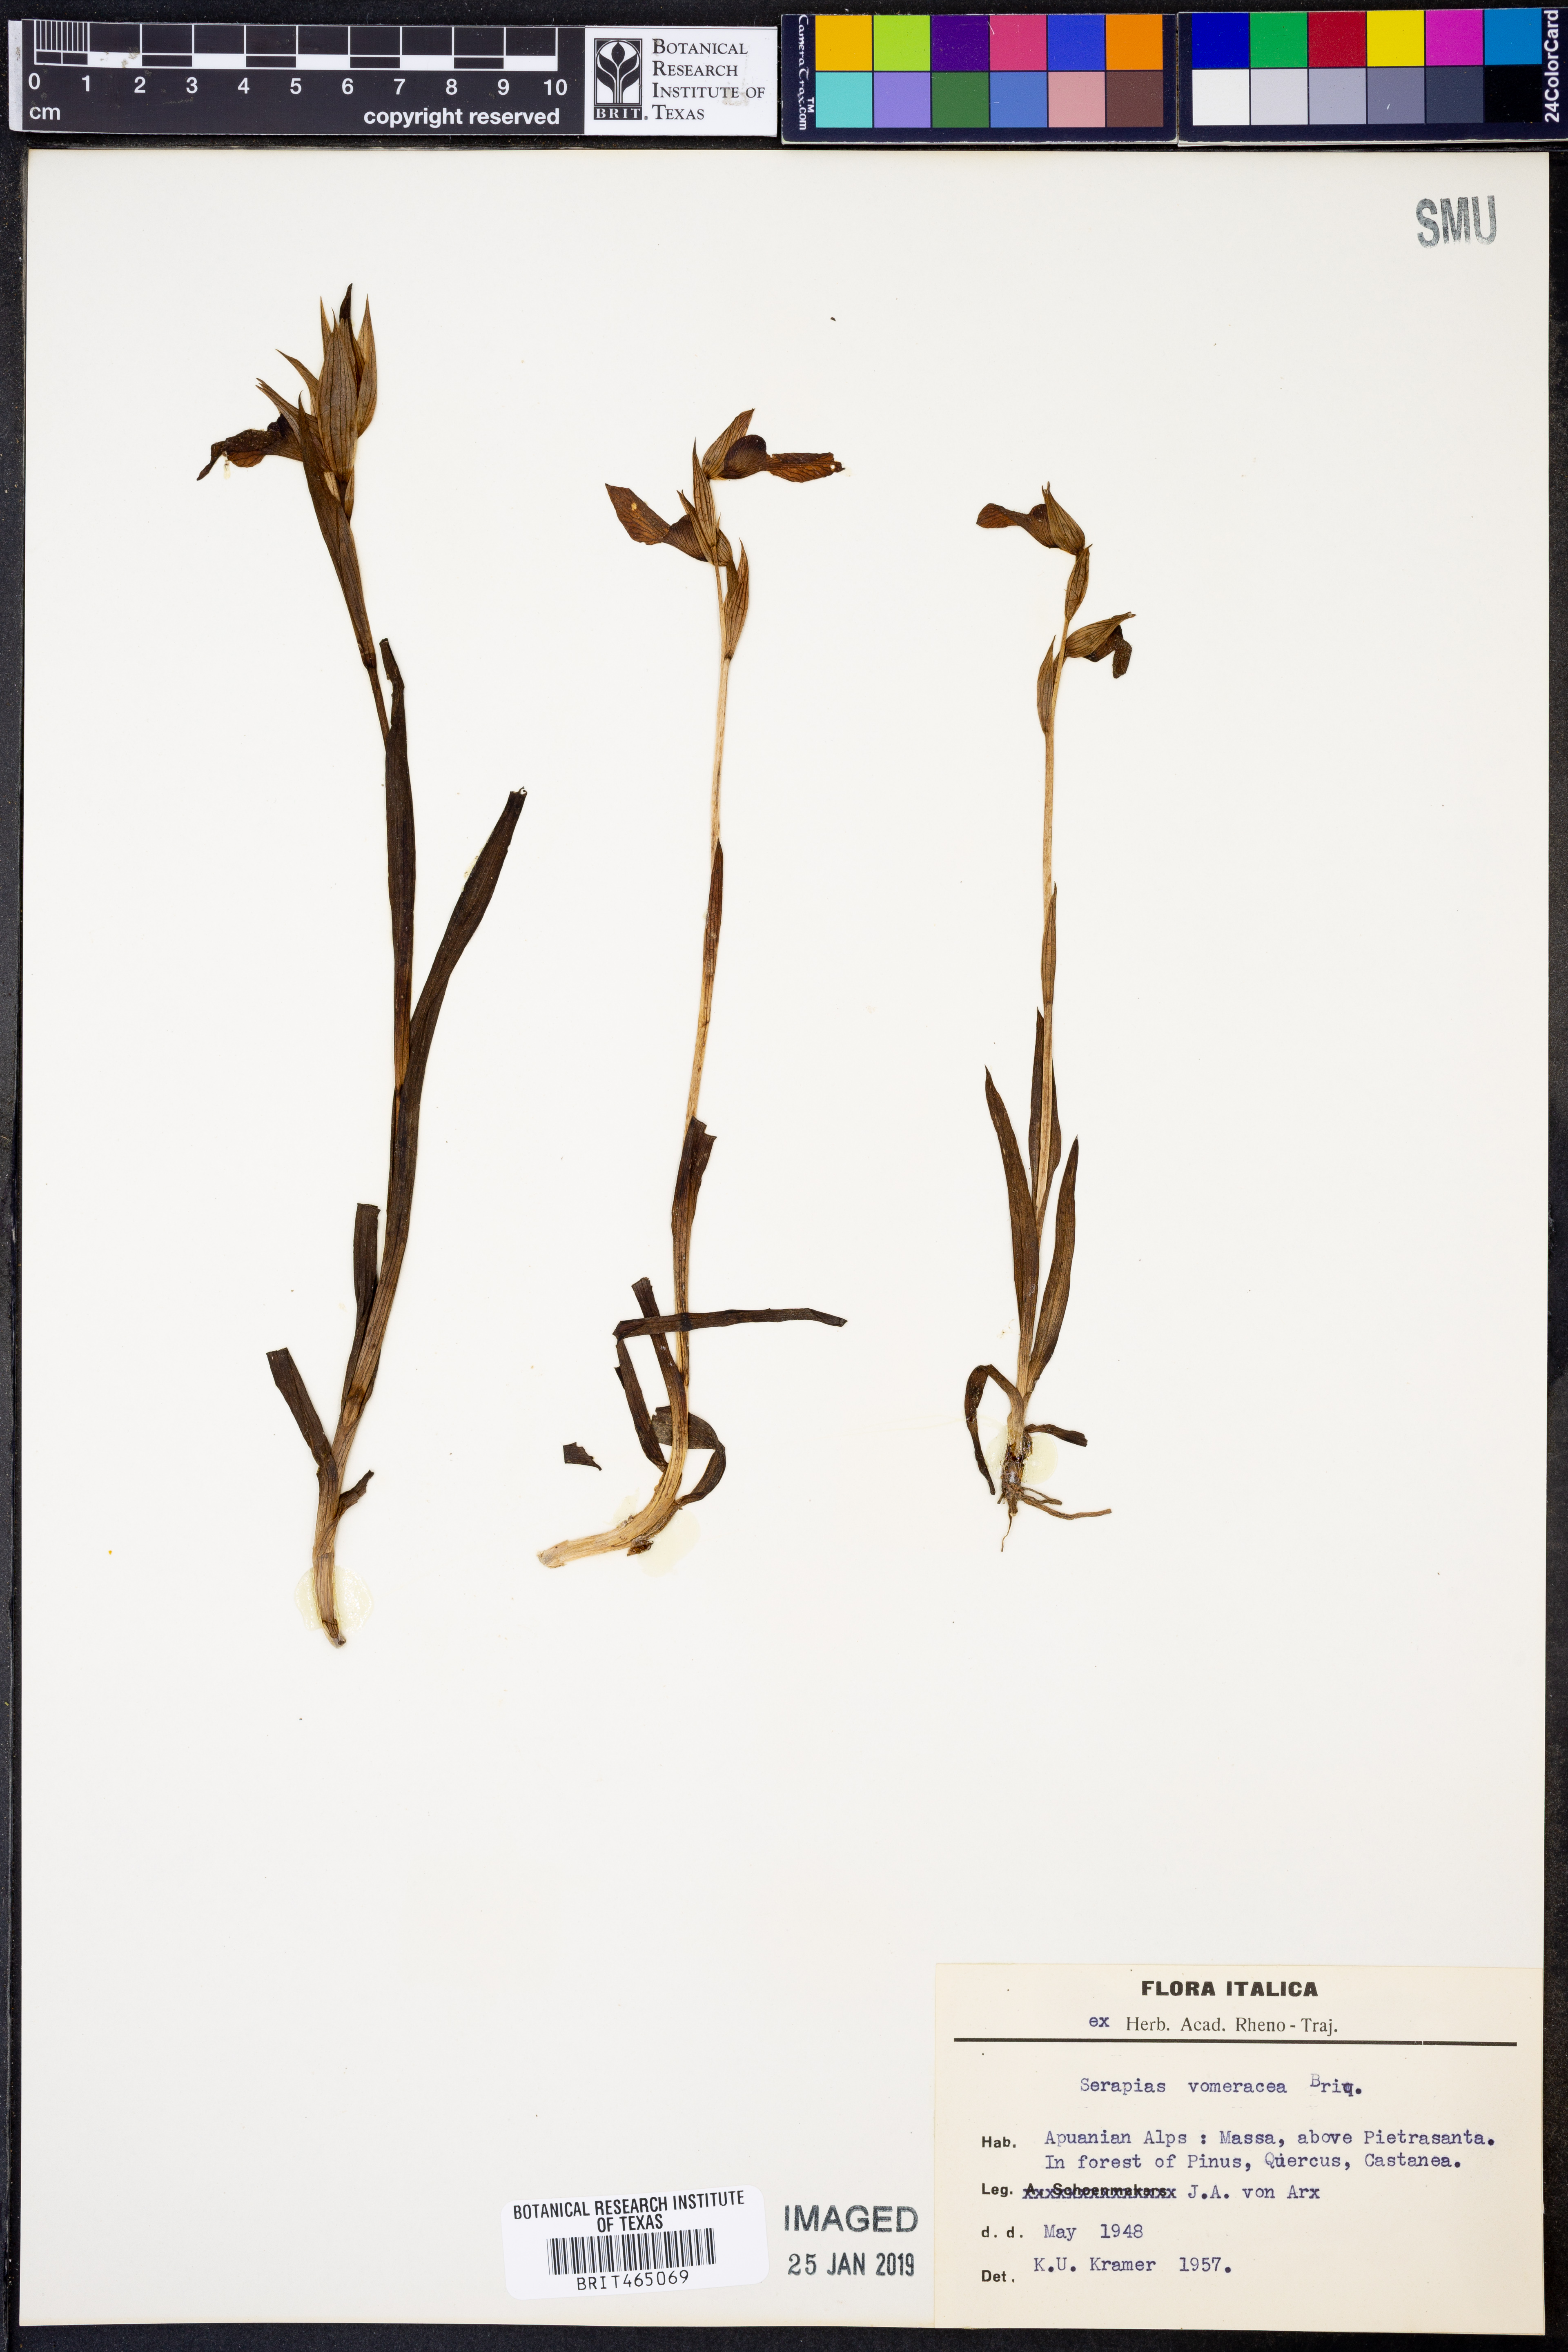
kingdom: Plantae
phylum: Tracheophyta
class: Liliopsida
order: Asparagales
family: Orchidaceae
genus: Serapias
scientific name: Serapias vomeracea
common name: Long-lipped tongue-orchid
